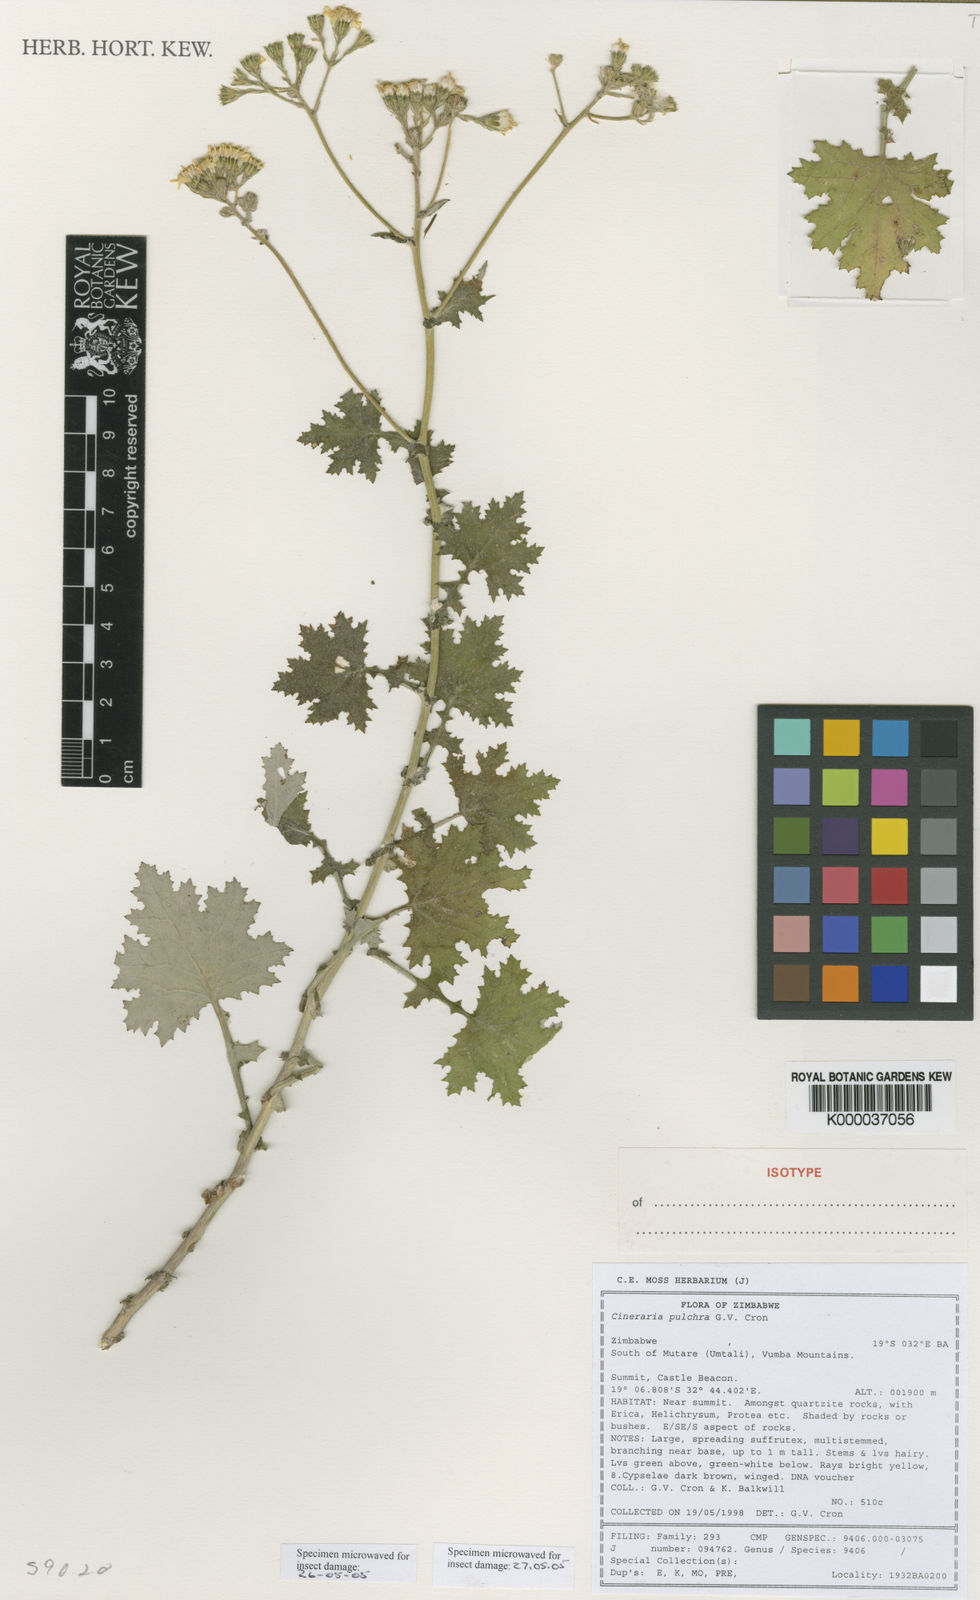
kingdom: Plantae
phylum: Tracheophyta
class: Magnoliopsida
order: Asterales
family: Asteraceae
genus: Cineraria
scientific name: Cineraria pulchra
